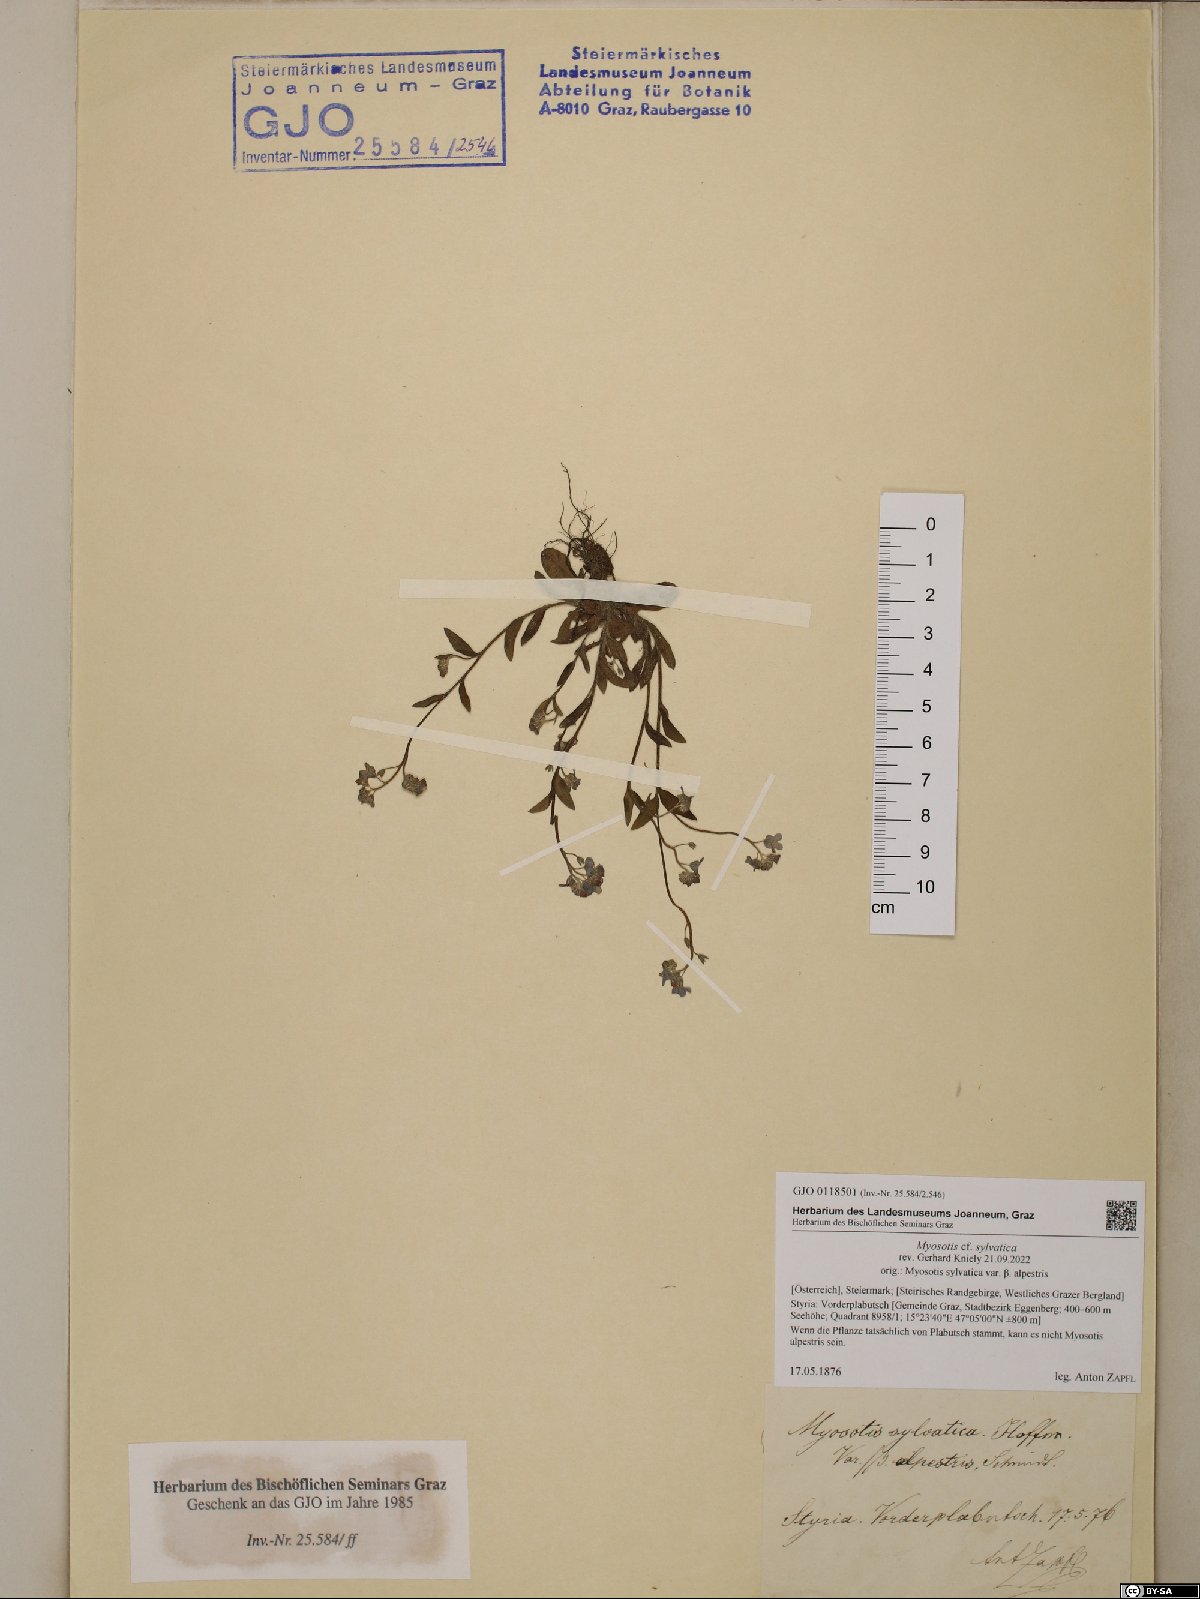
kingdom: Plantae
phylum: Tracheophyta
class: Magnoliopsida
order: Boraginales
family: Boraginaceae
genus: Myosotis
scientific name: Myosotis sylvatica
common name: Wood forget-me-not
